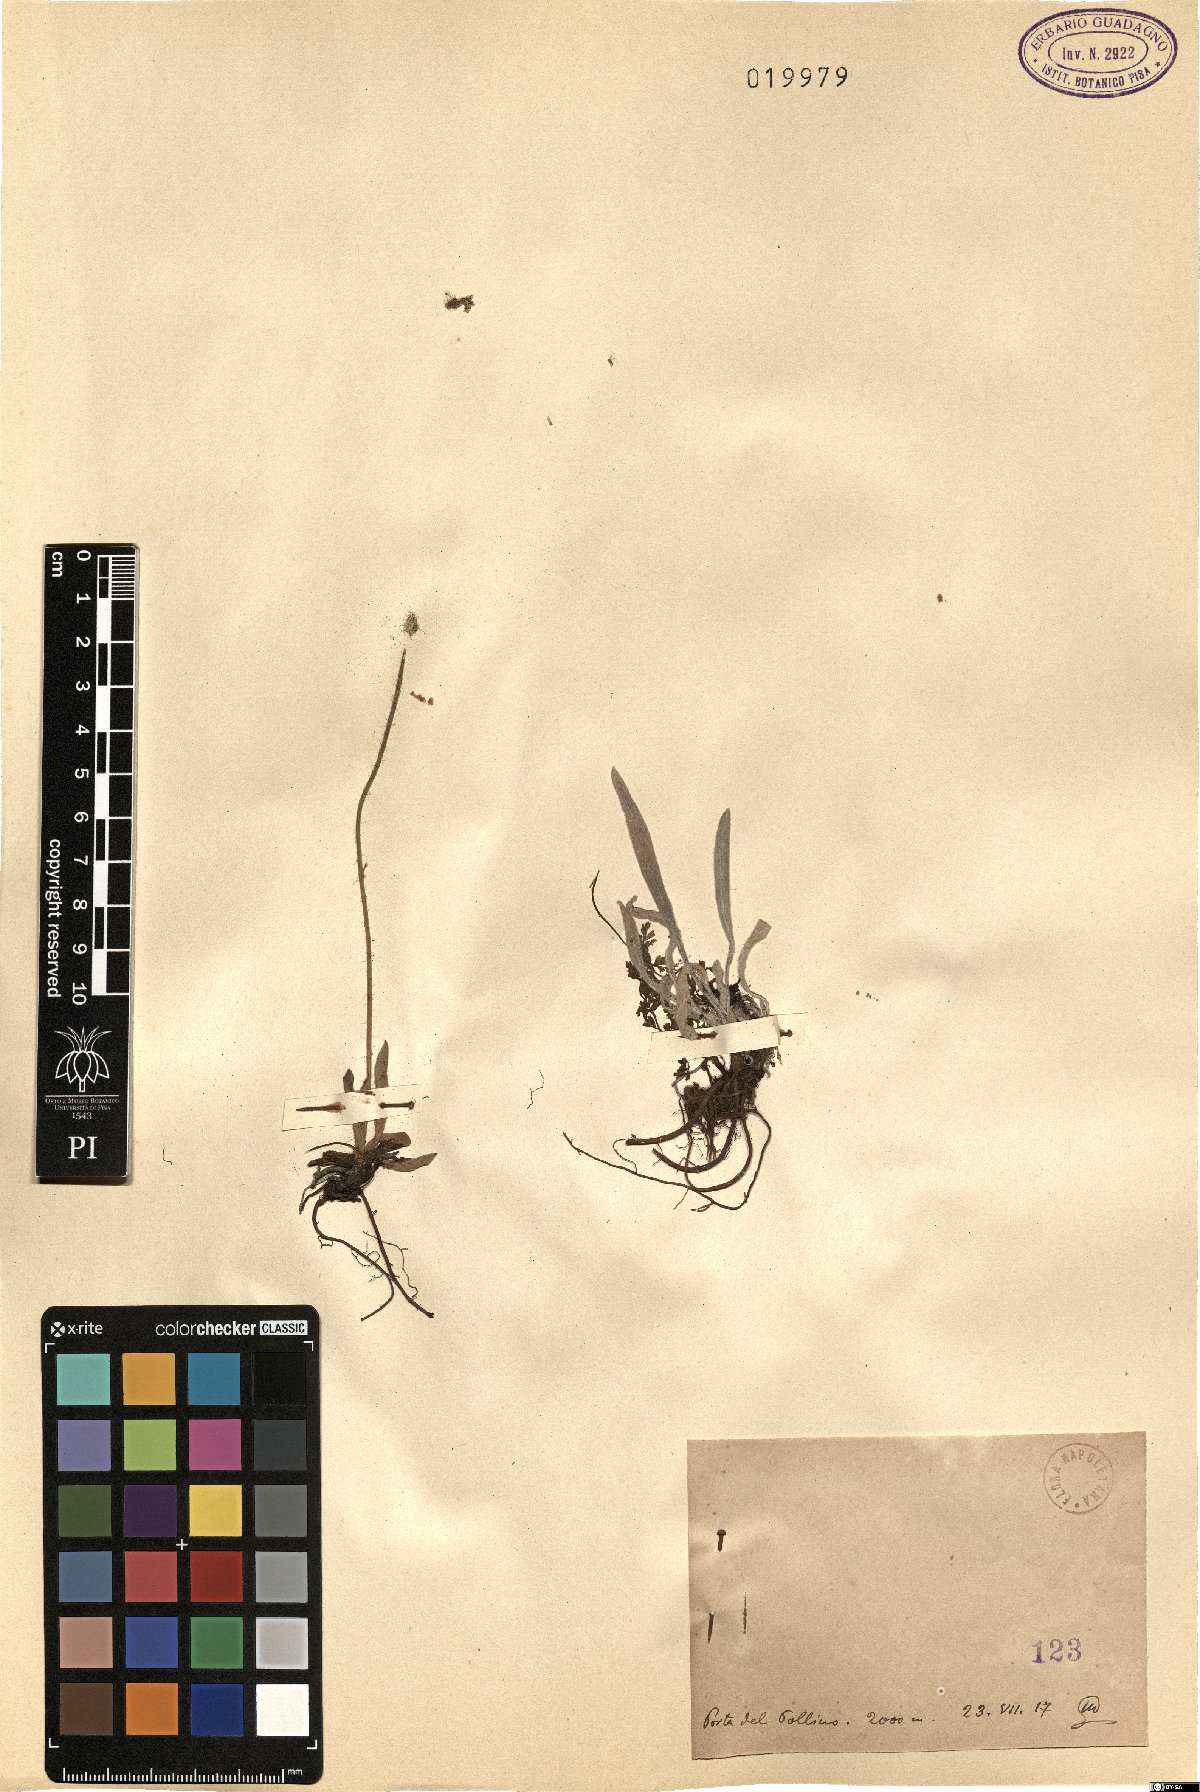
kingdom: Plantae
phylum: Tracheophyta
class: Magnoliopsida
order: Asterales
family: Asteraceae
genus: Hieracium
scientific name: Hieracium
